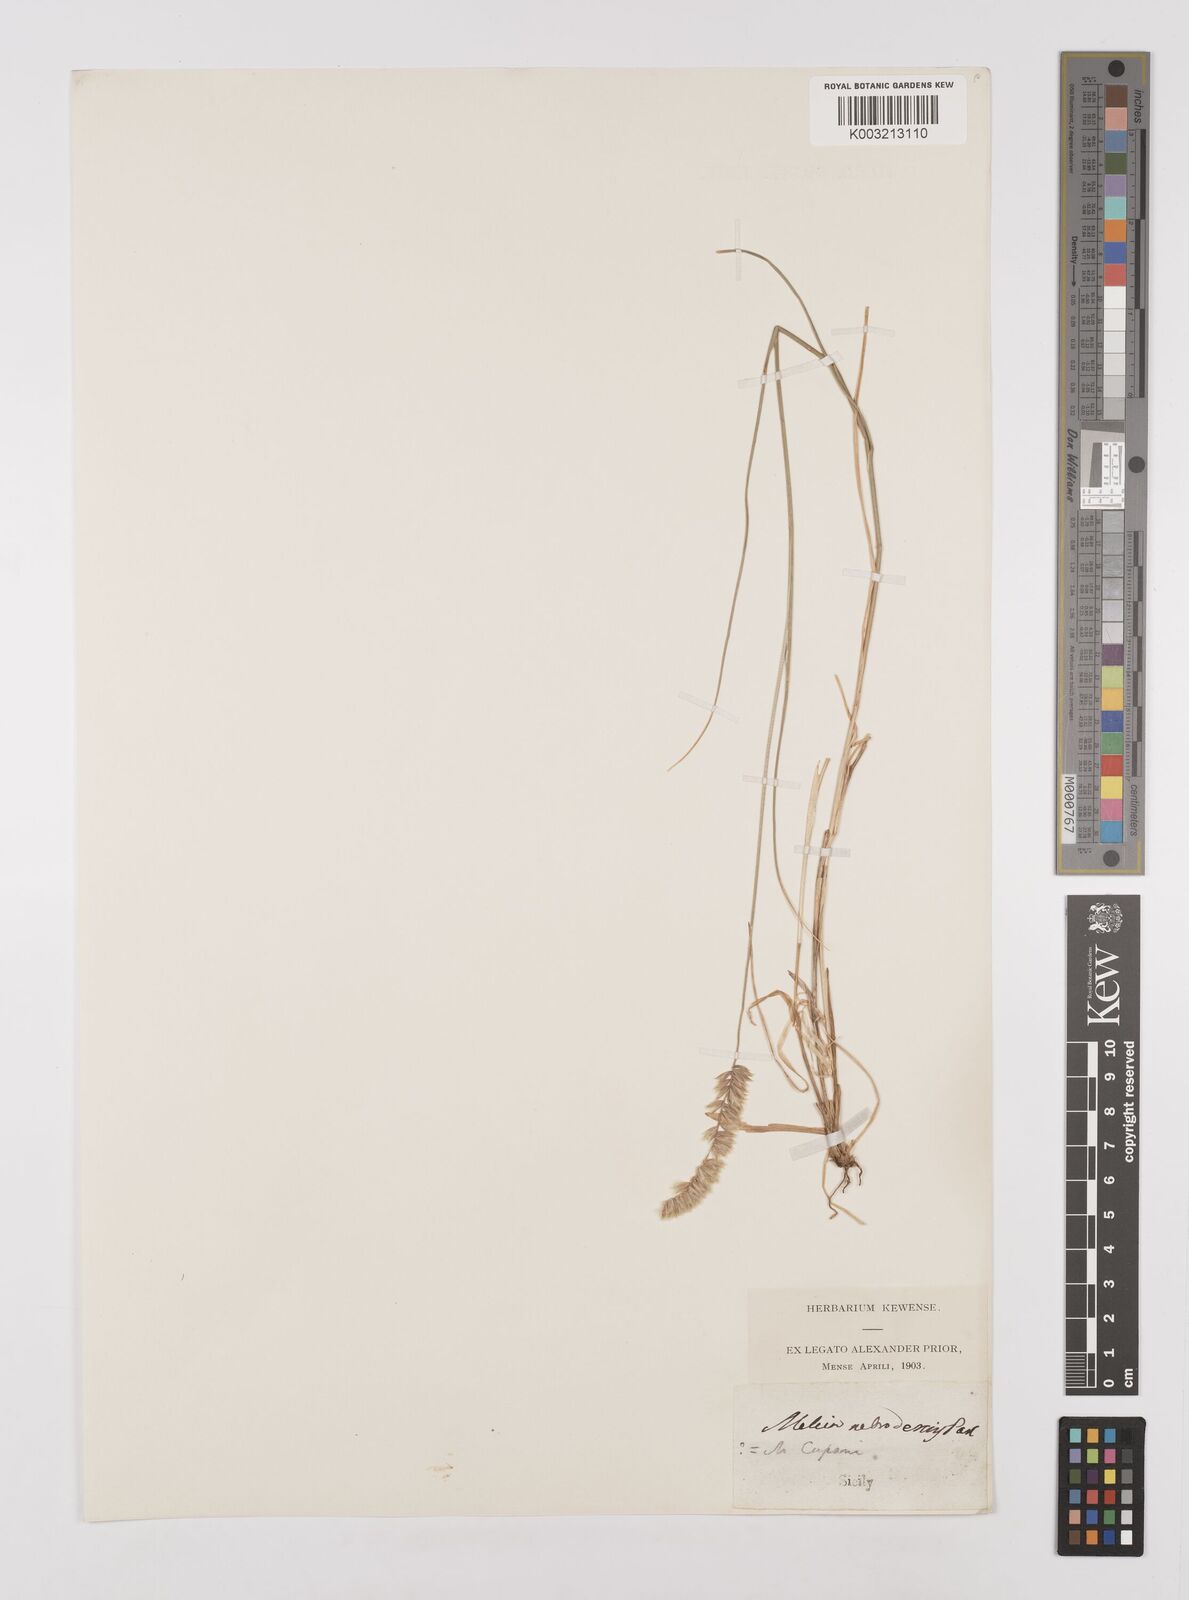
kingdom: Plantae
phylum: Tracheophyta
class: Liliopsida
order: Poales
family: Poaceae
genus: Melica
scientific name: Melica ciliata
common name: Hairy melicgrass
